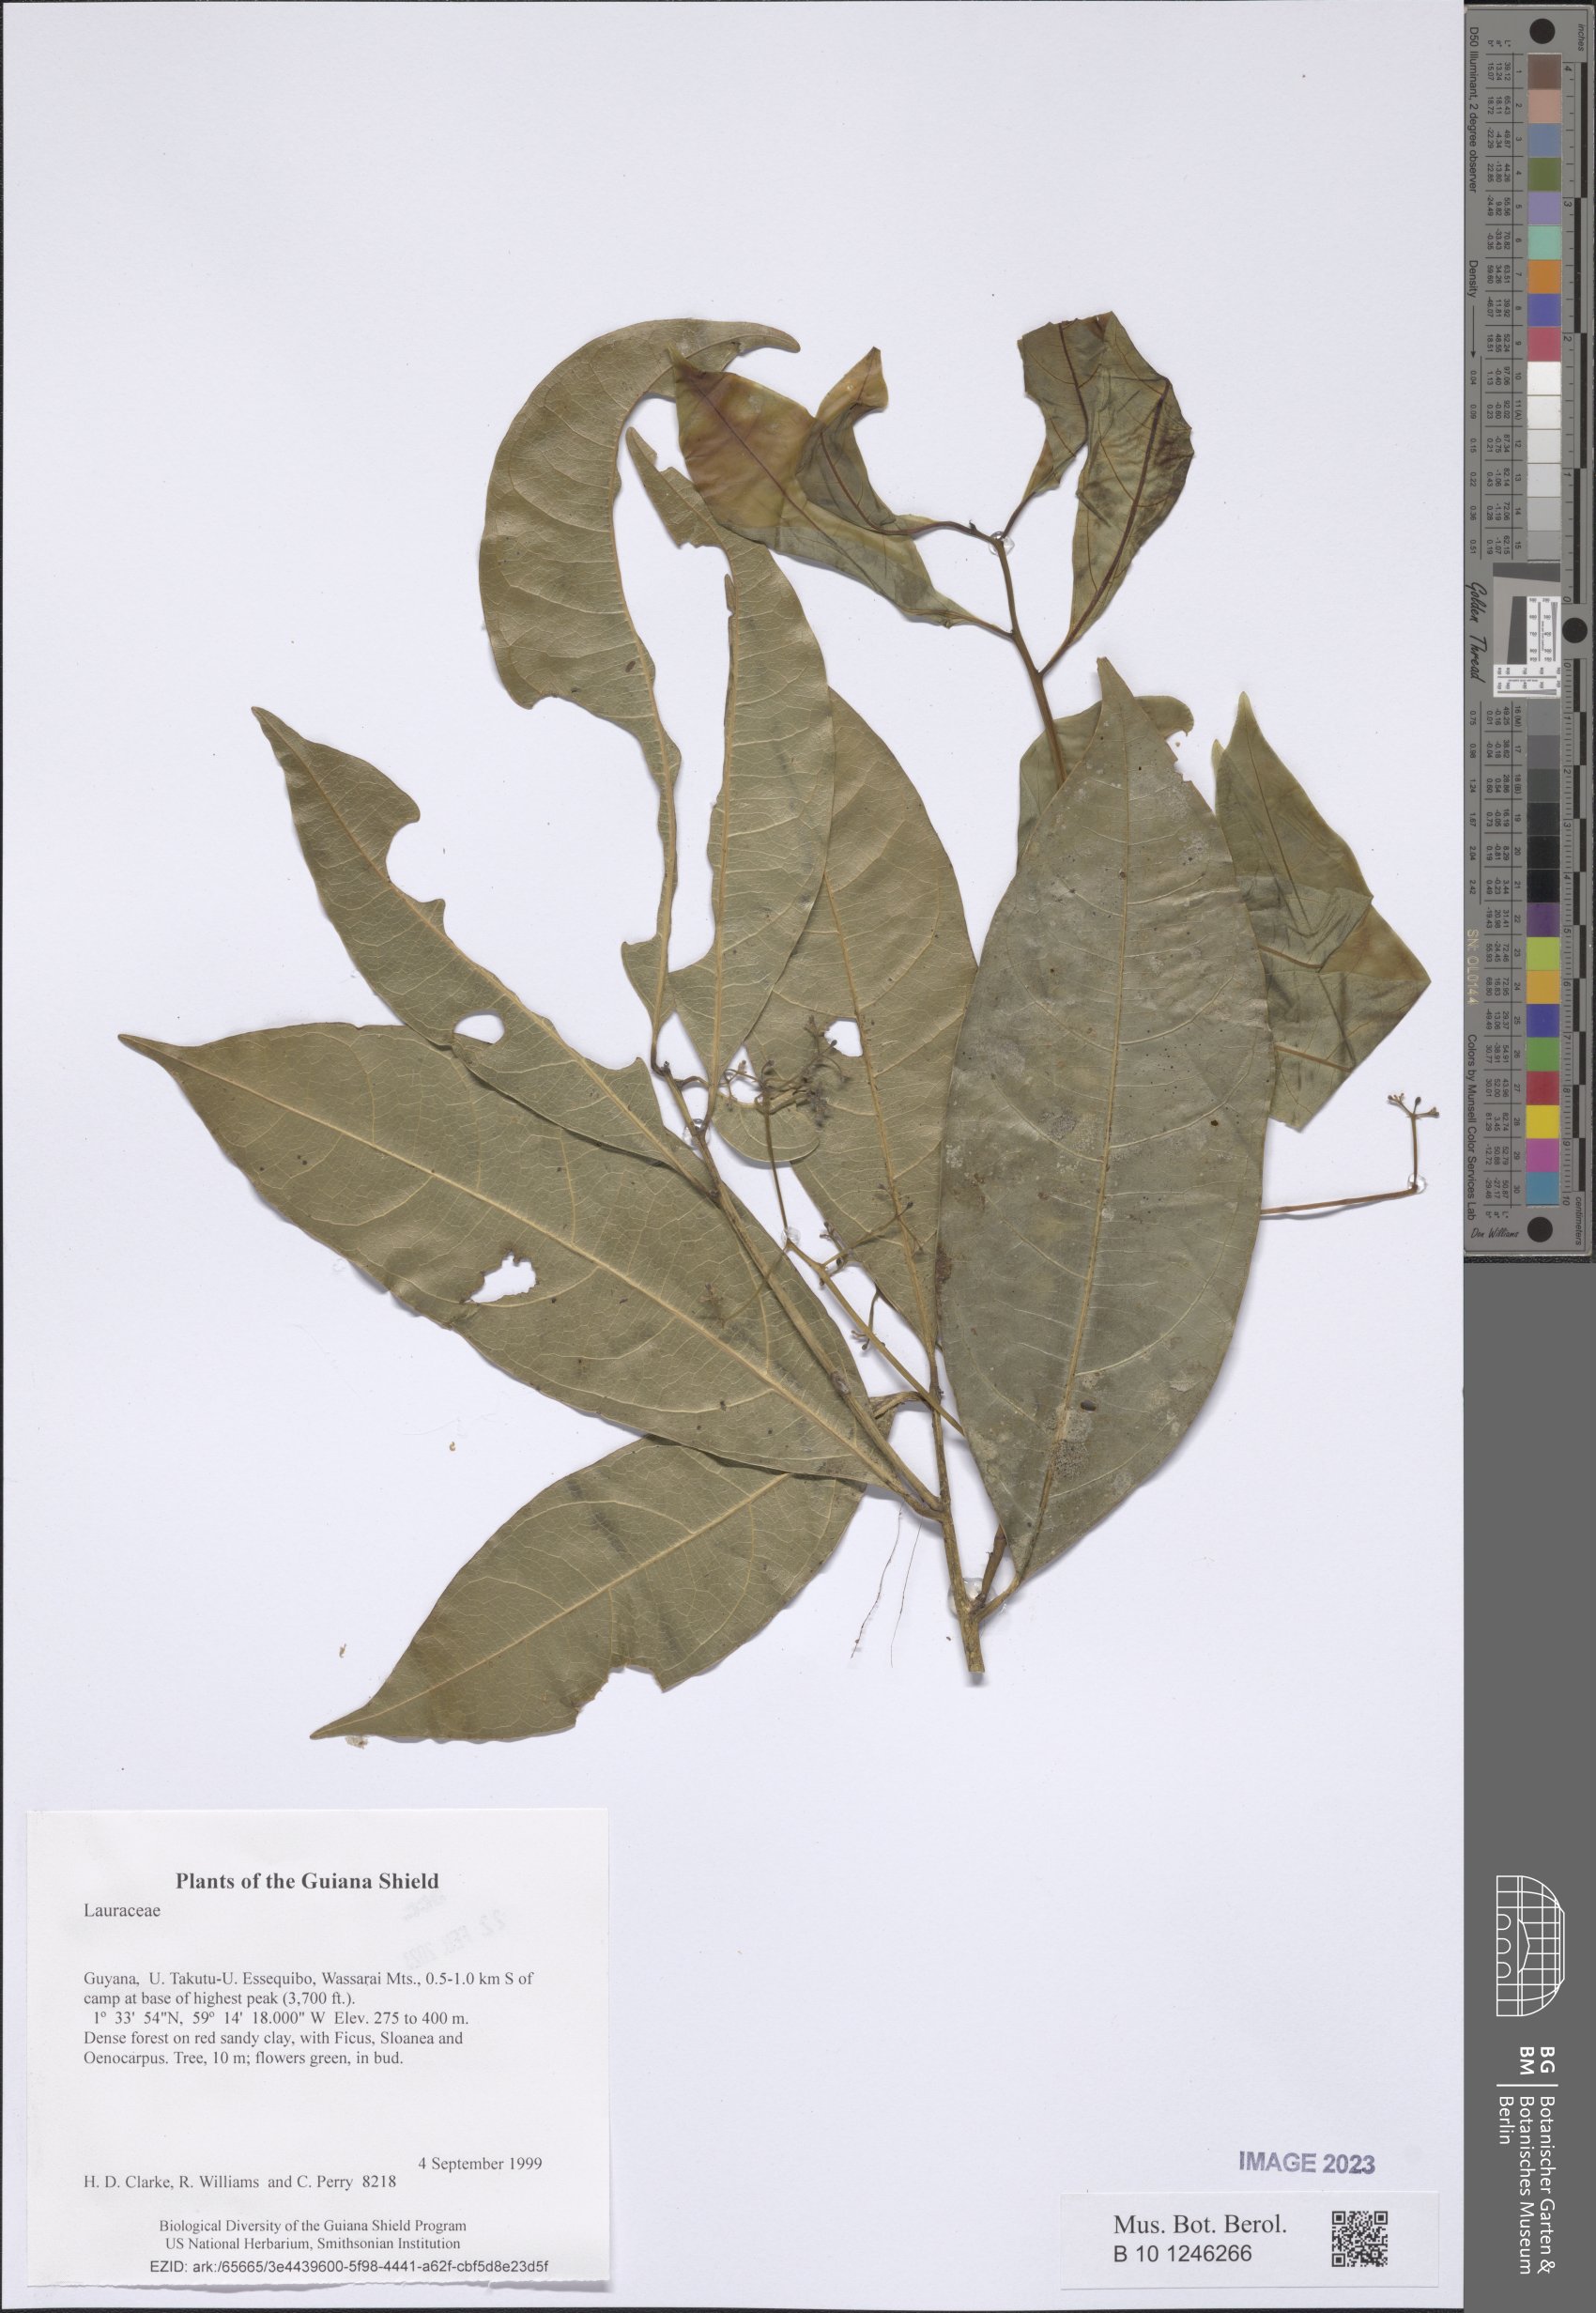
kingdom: Plantae
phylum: Tracheophyta
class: Magnoliopsida
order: Laurales
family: Lauraceae
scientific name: Lauraceae
